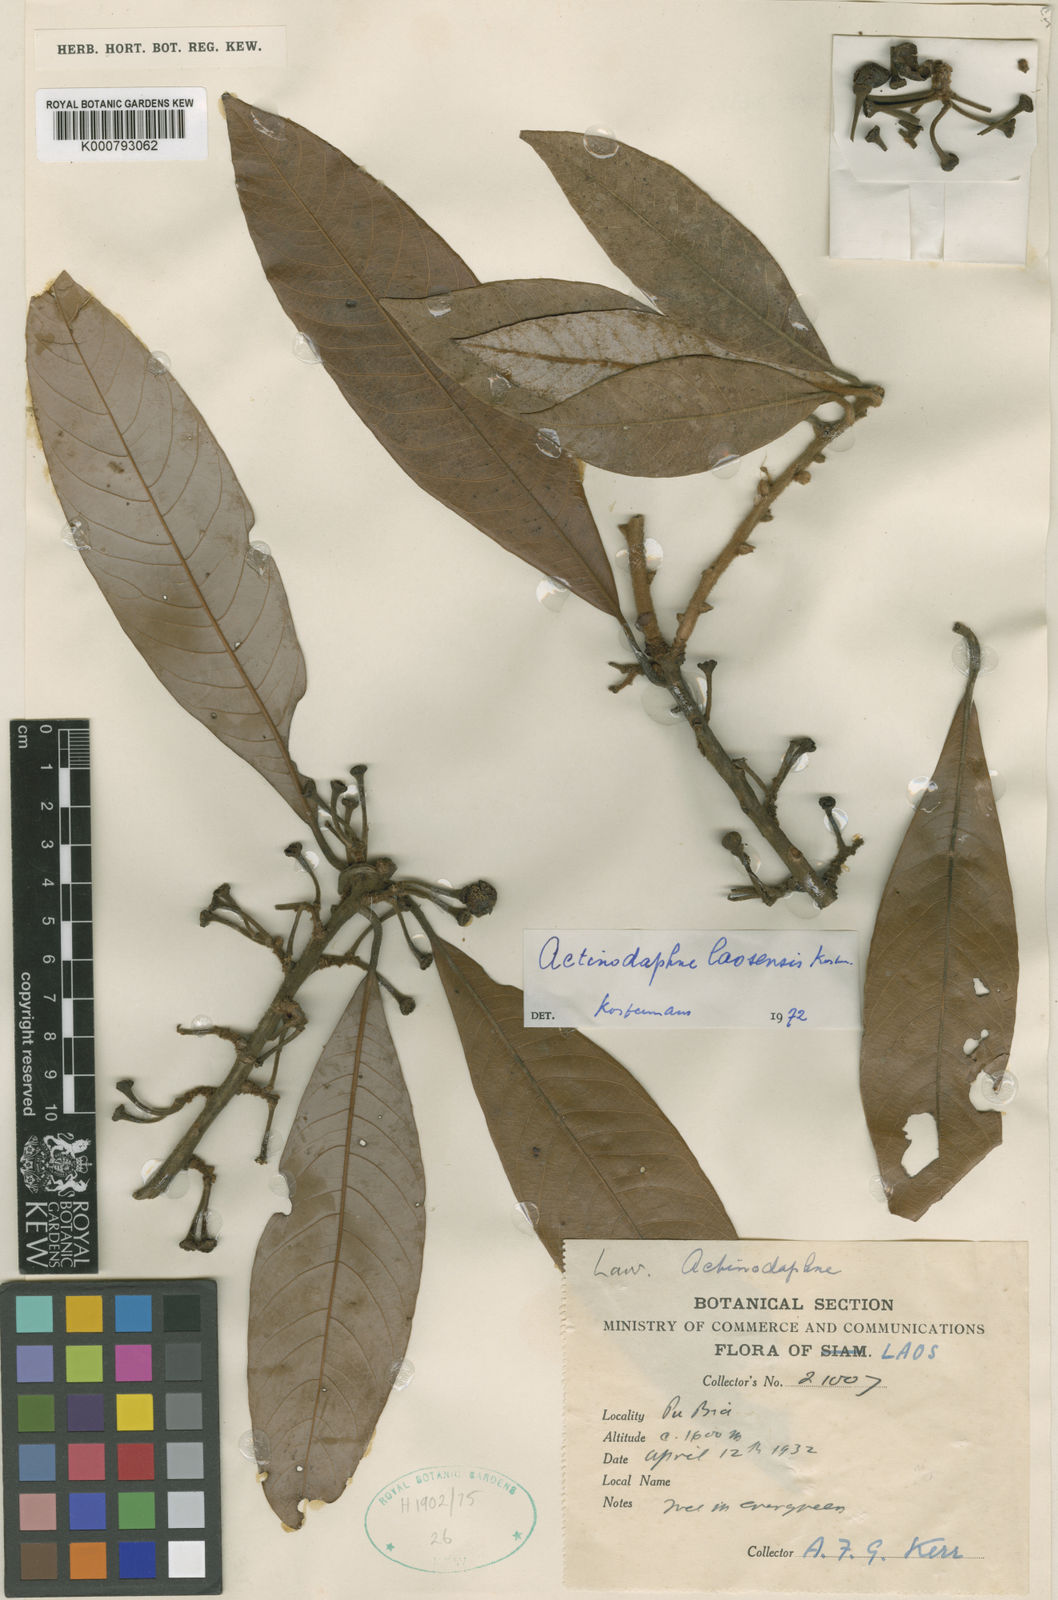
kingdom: Plantae
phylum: Tracheophyta
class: Magnoliopsida
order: Laurales
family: Lauraceae
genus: Actinodaphne
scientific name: Actinodaphne
